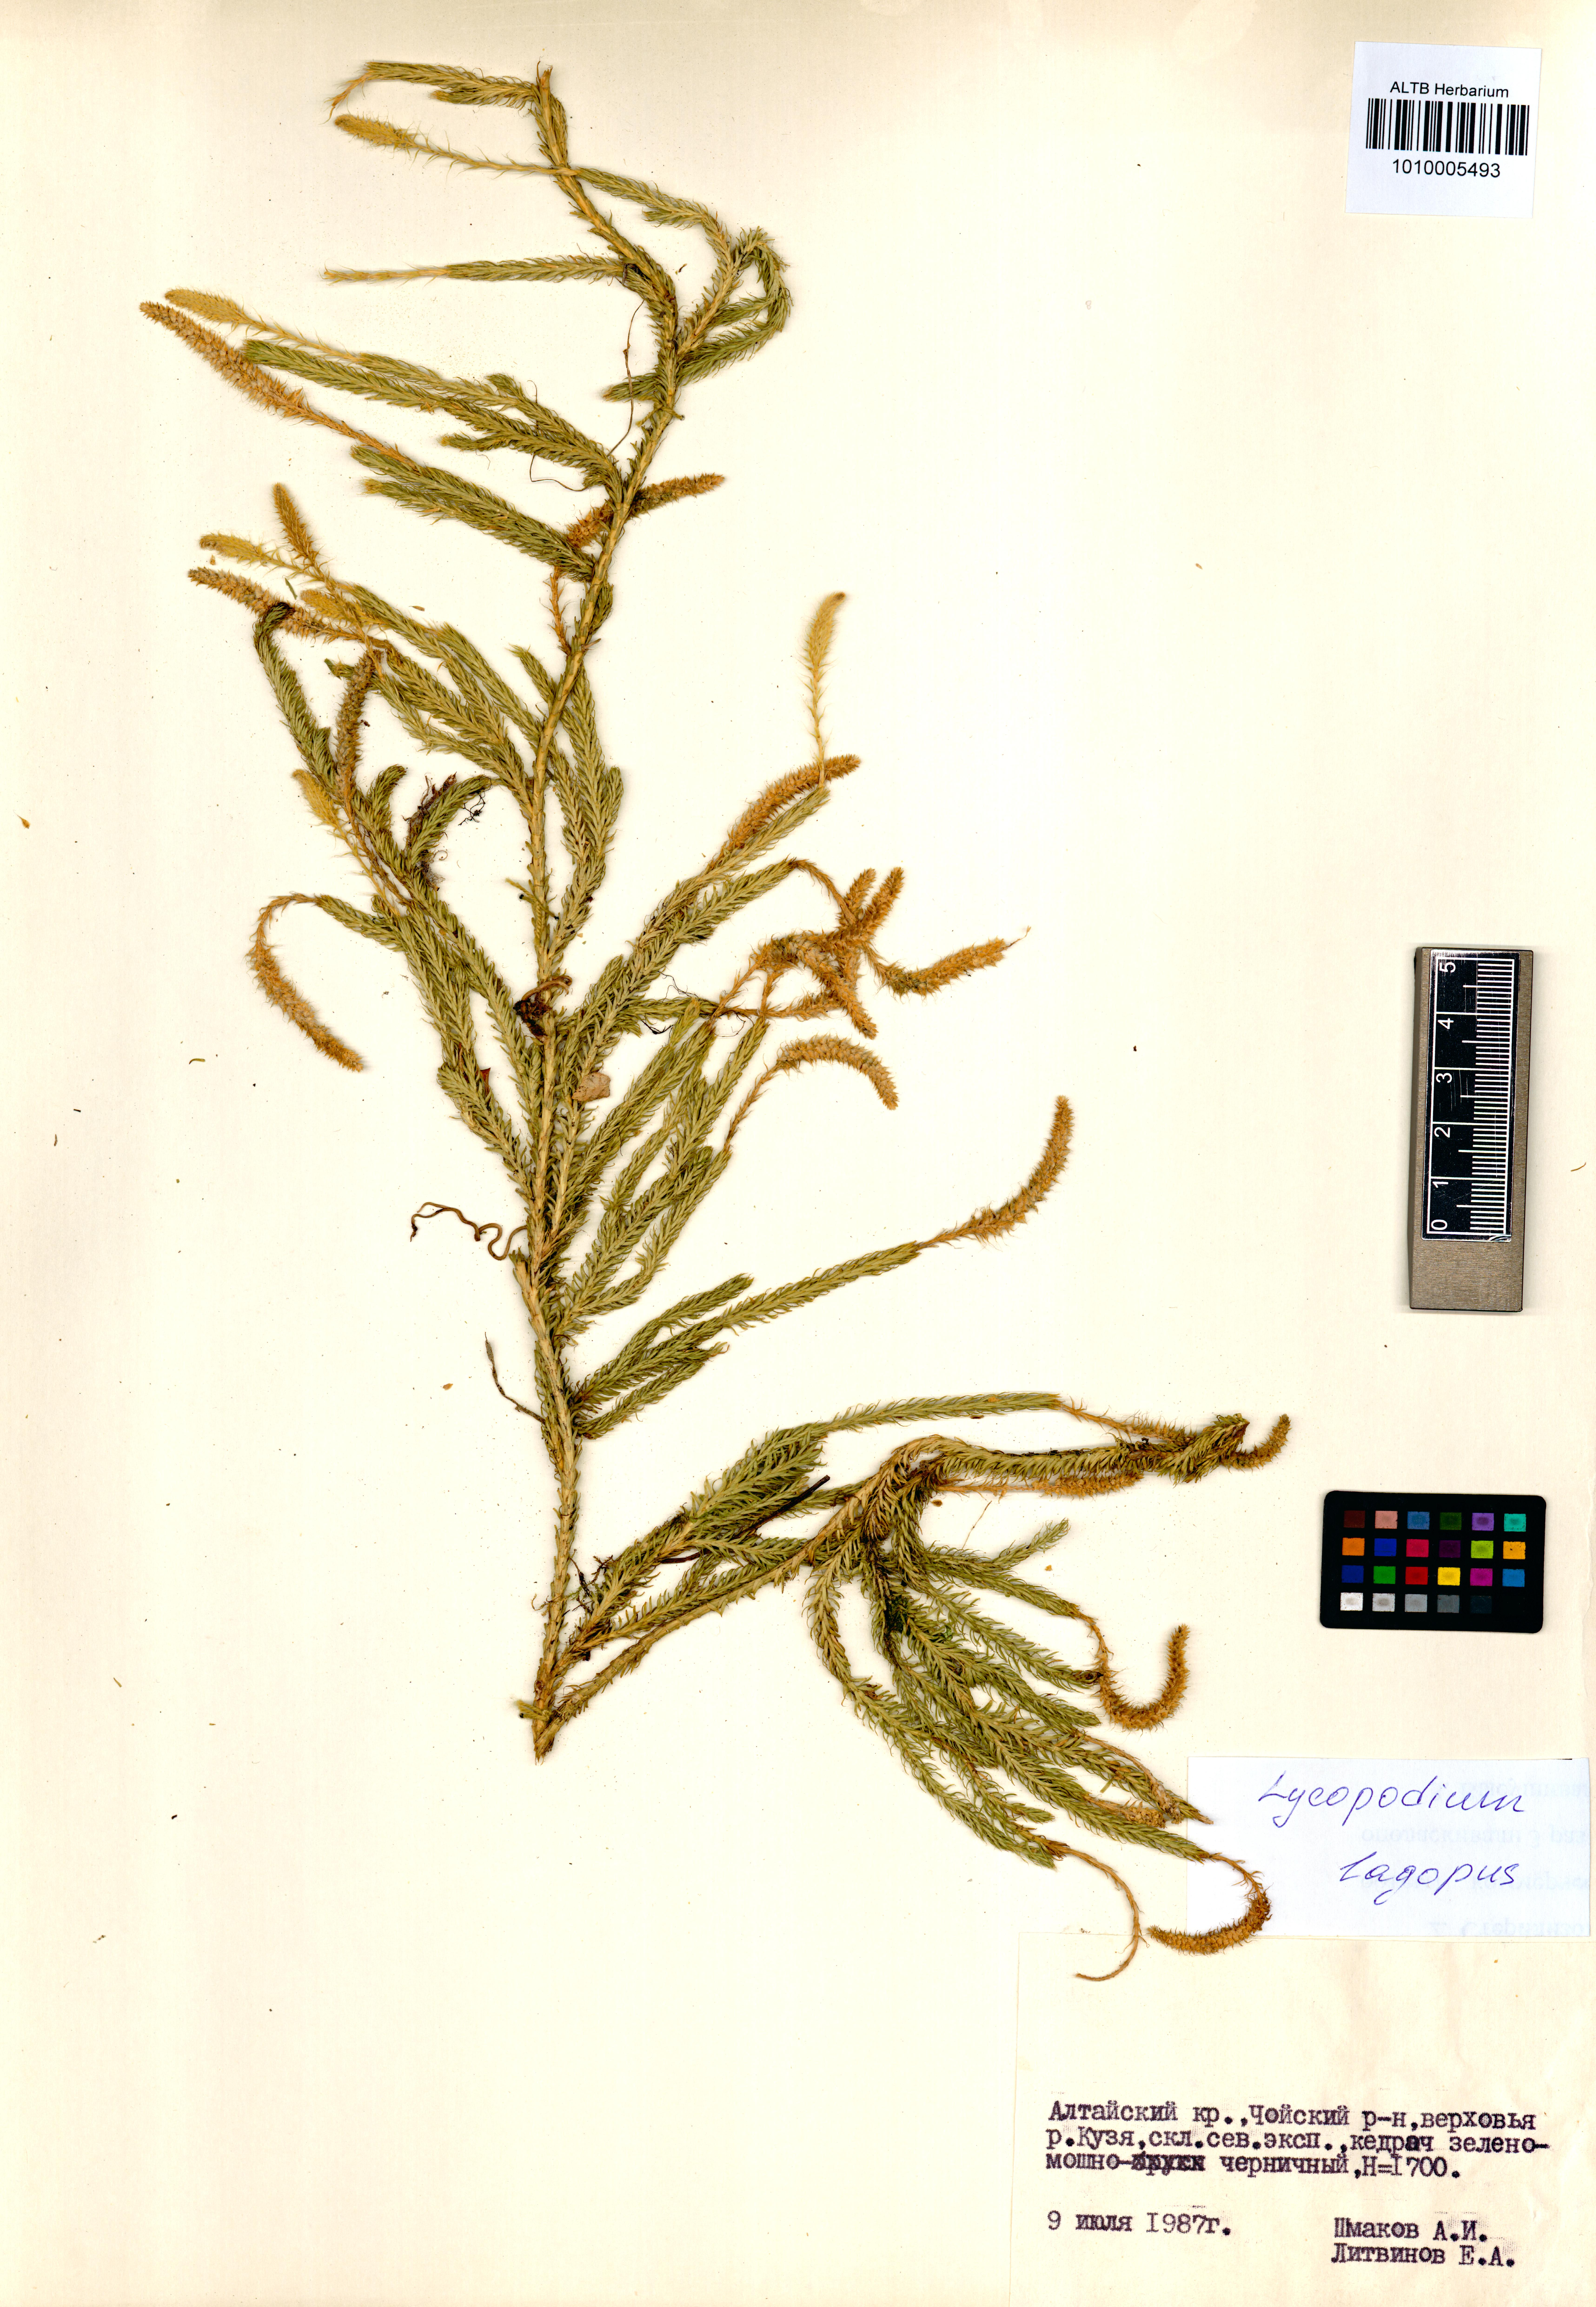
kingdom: Plantae
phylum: Tracheophyta
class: Lycopodiopsida
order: Lycopodiales
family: Lycopodiaceae
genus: Lycopodium
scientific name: Lycopodium lagopus
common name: One-cone clubmoss
